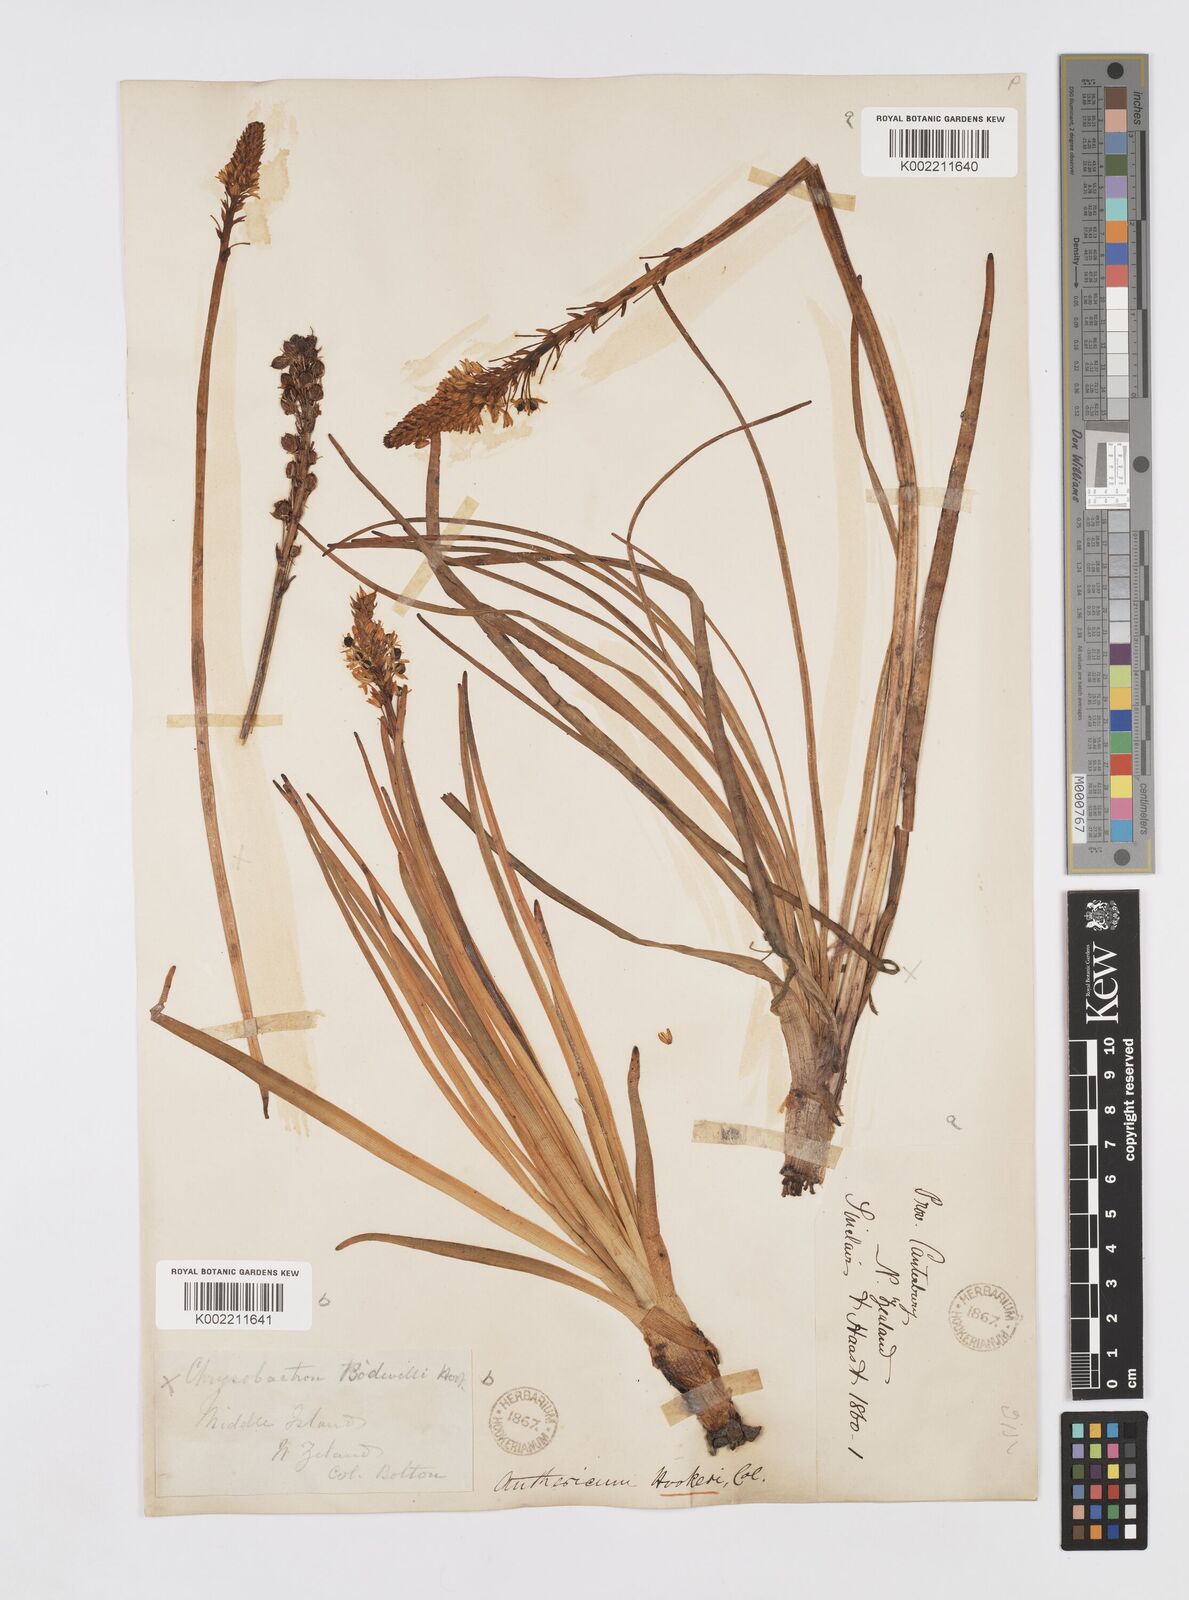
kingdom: Plantae
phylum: Tracheophyta
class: Liliopsida
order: Asparagales
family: Asphodelaceae
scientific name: Asphodelaceae
